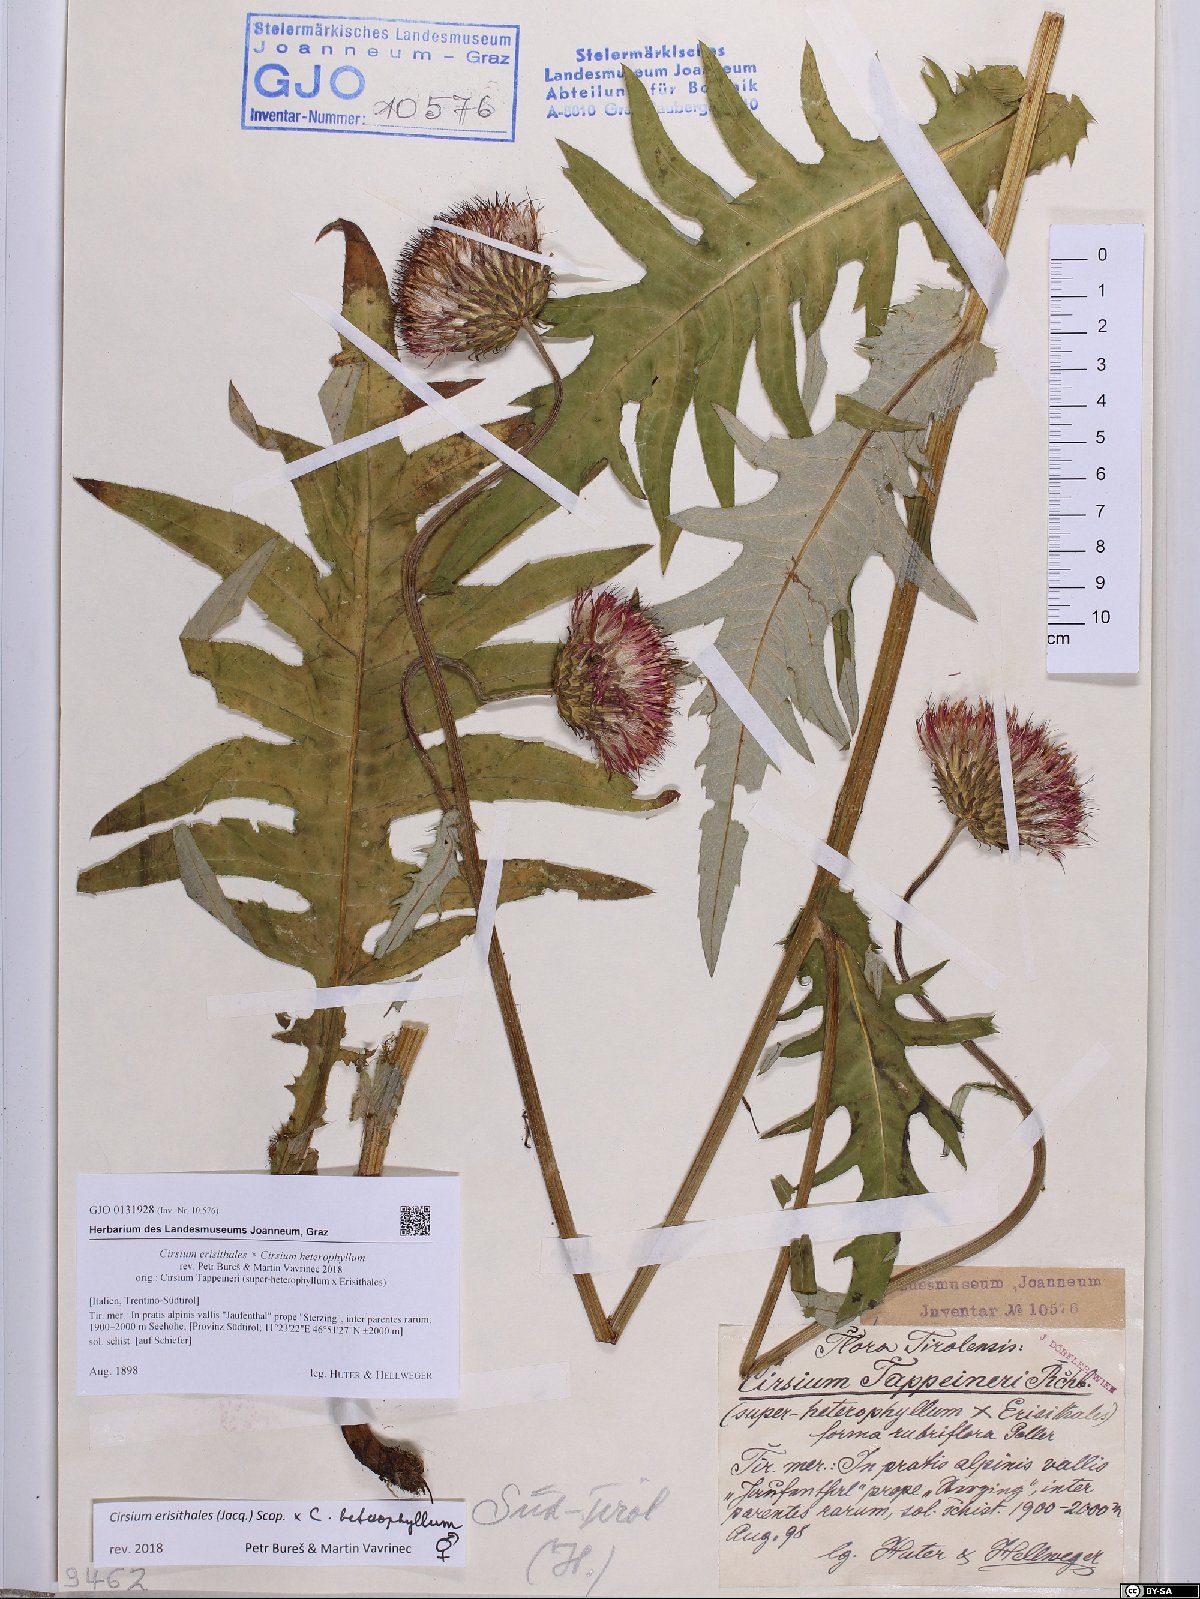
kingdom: Plantae
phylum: Tracheophyta
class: Magnoliopsida
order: Asterales
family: Asteraceae
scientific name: Asteraceae
